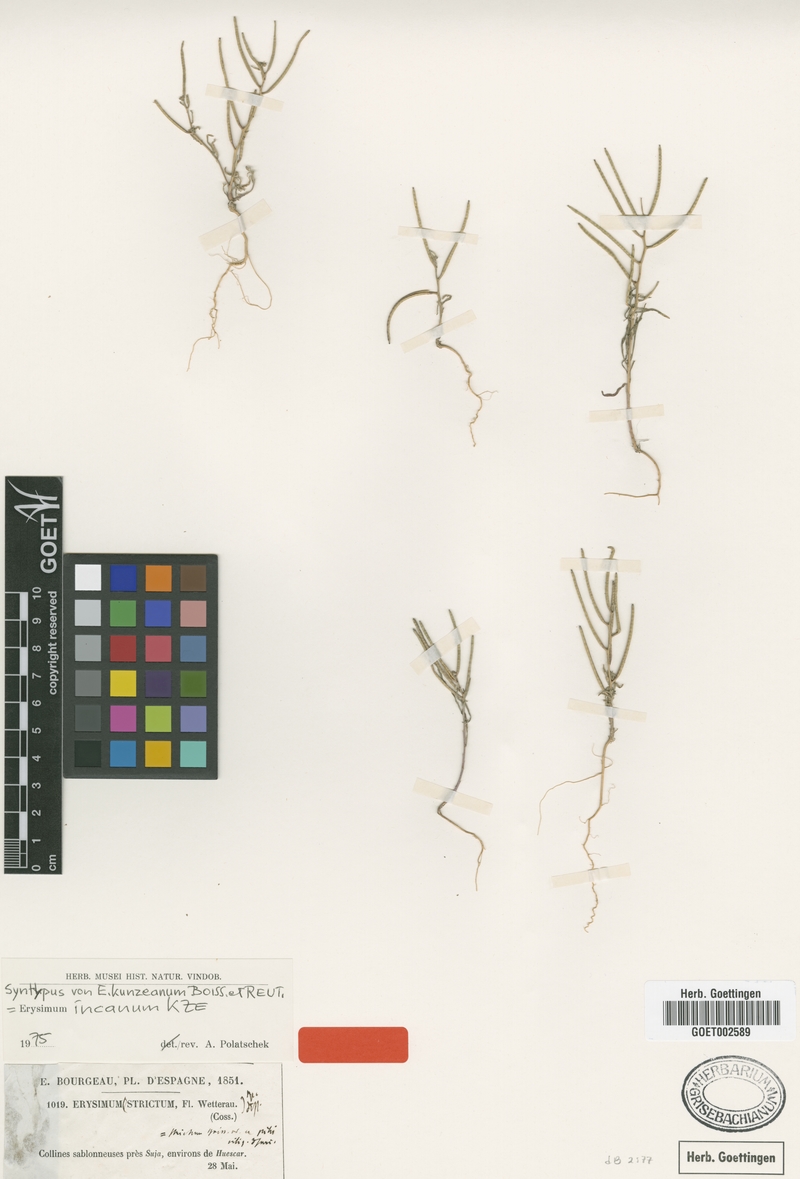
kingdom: Plantae
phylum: Tracheophyta
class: Magnoliopsida
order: Brassicales
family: Brassicaceae
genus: Erysimum
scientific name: Erysimum incanum
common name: Hoary treacle mustard
